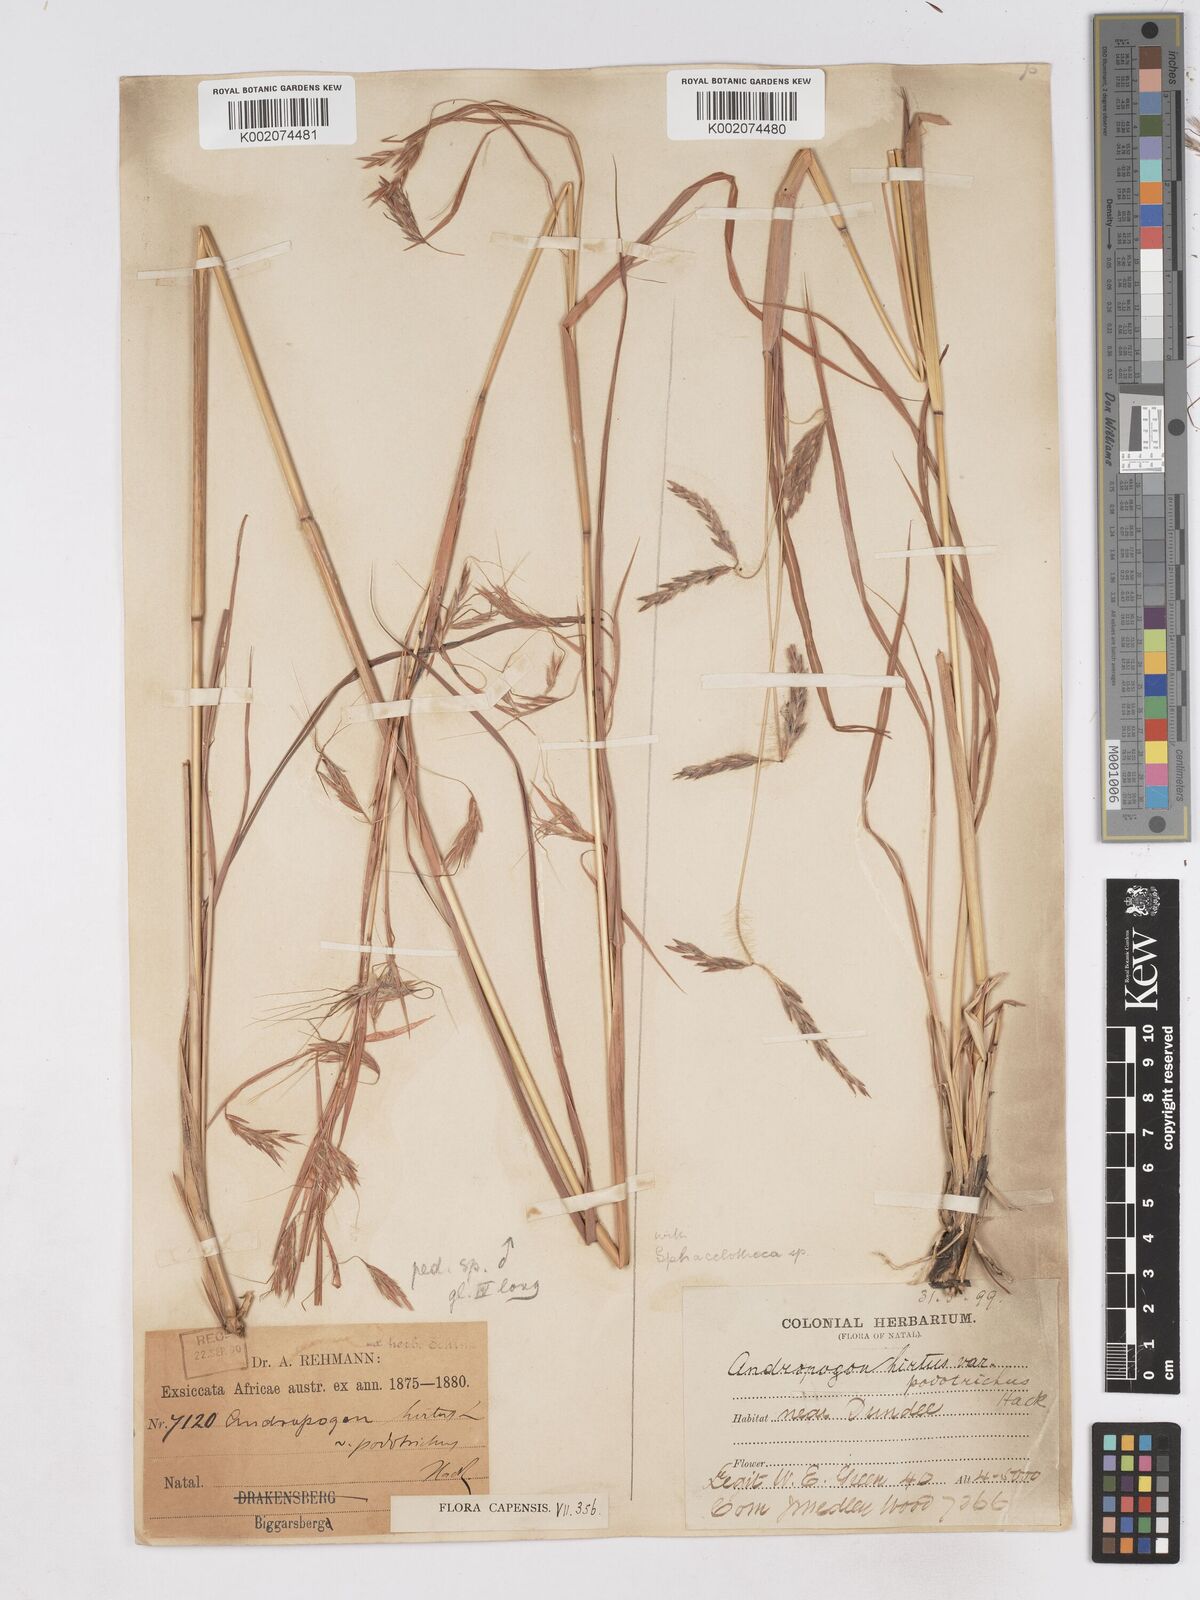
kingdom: Plantae
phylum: Tracheophyta
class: Liliopsida
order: Poales
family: Poaceae
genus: Hyparrhenia
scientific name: Hyparrhenia hirta
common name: Thatching grass
